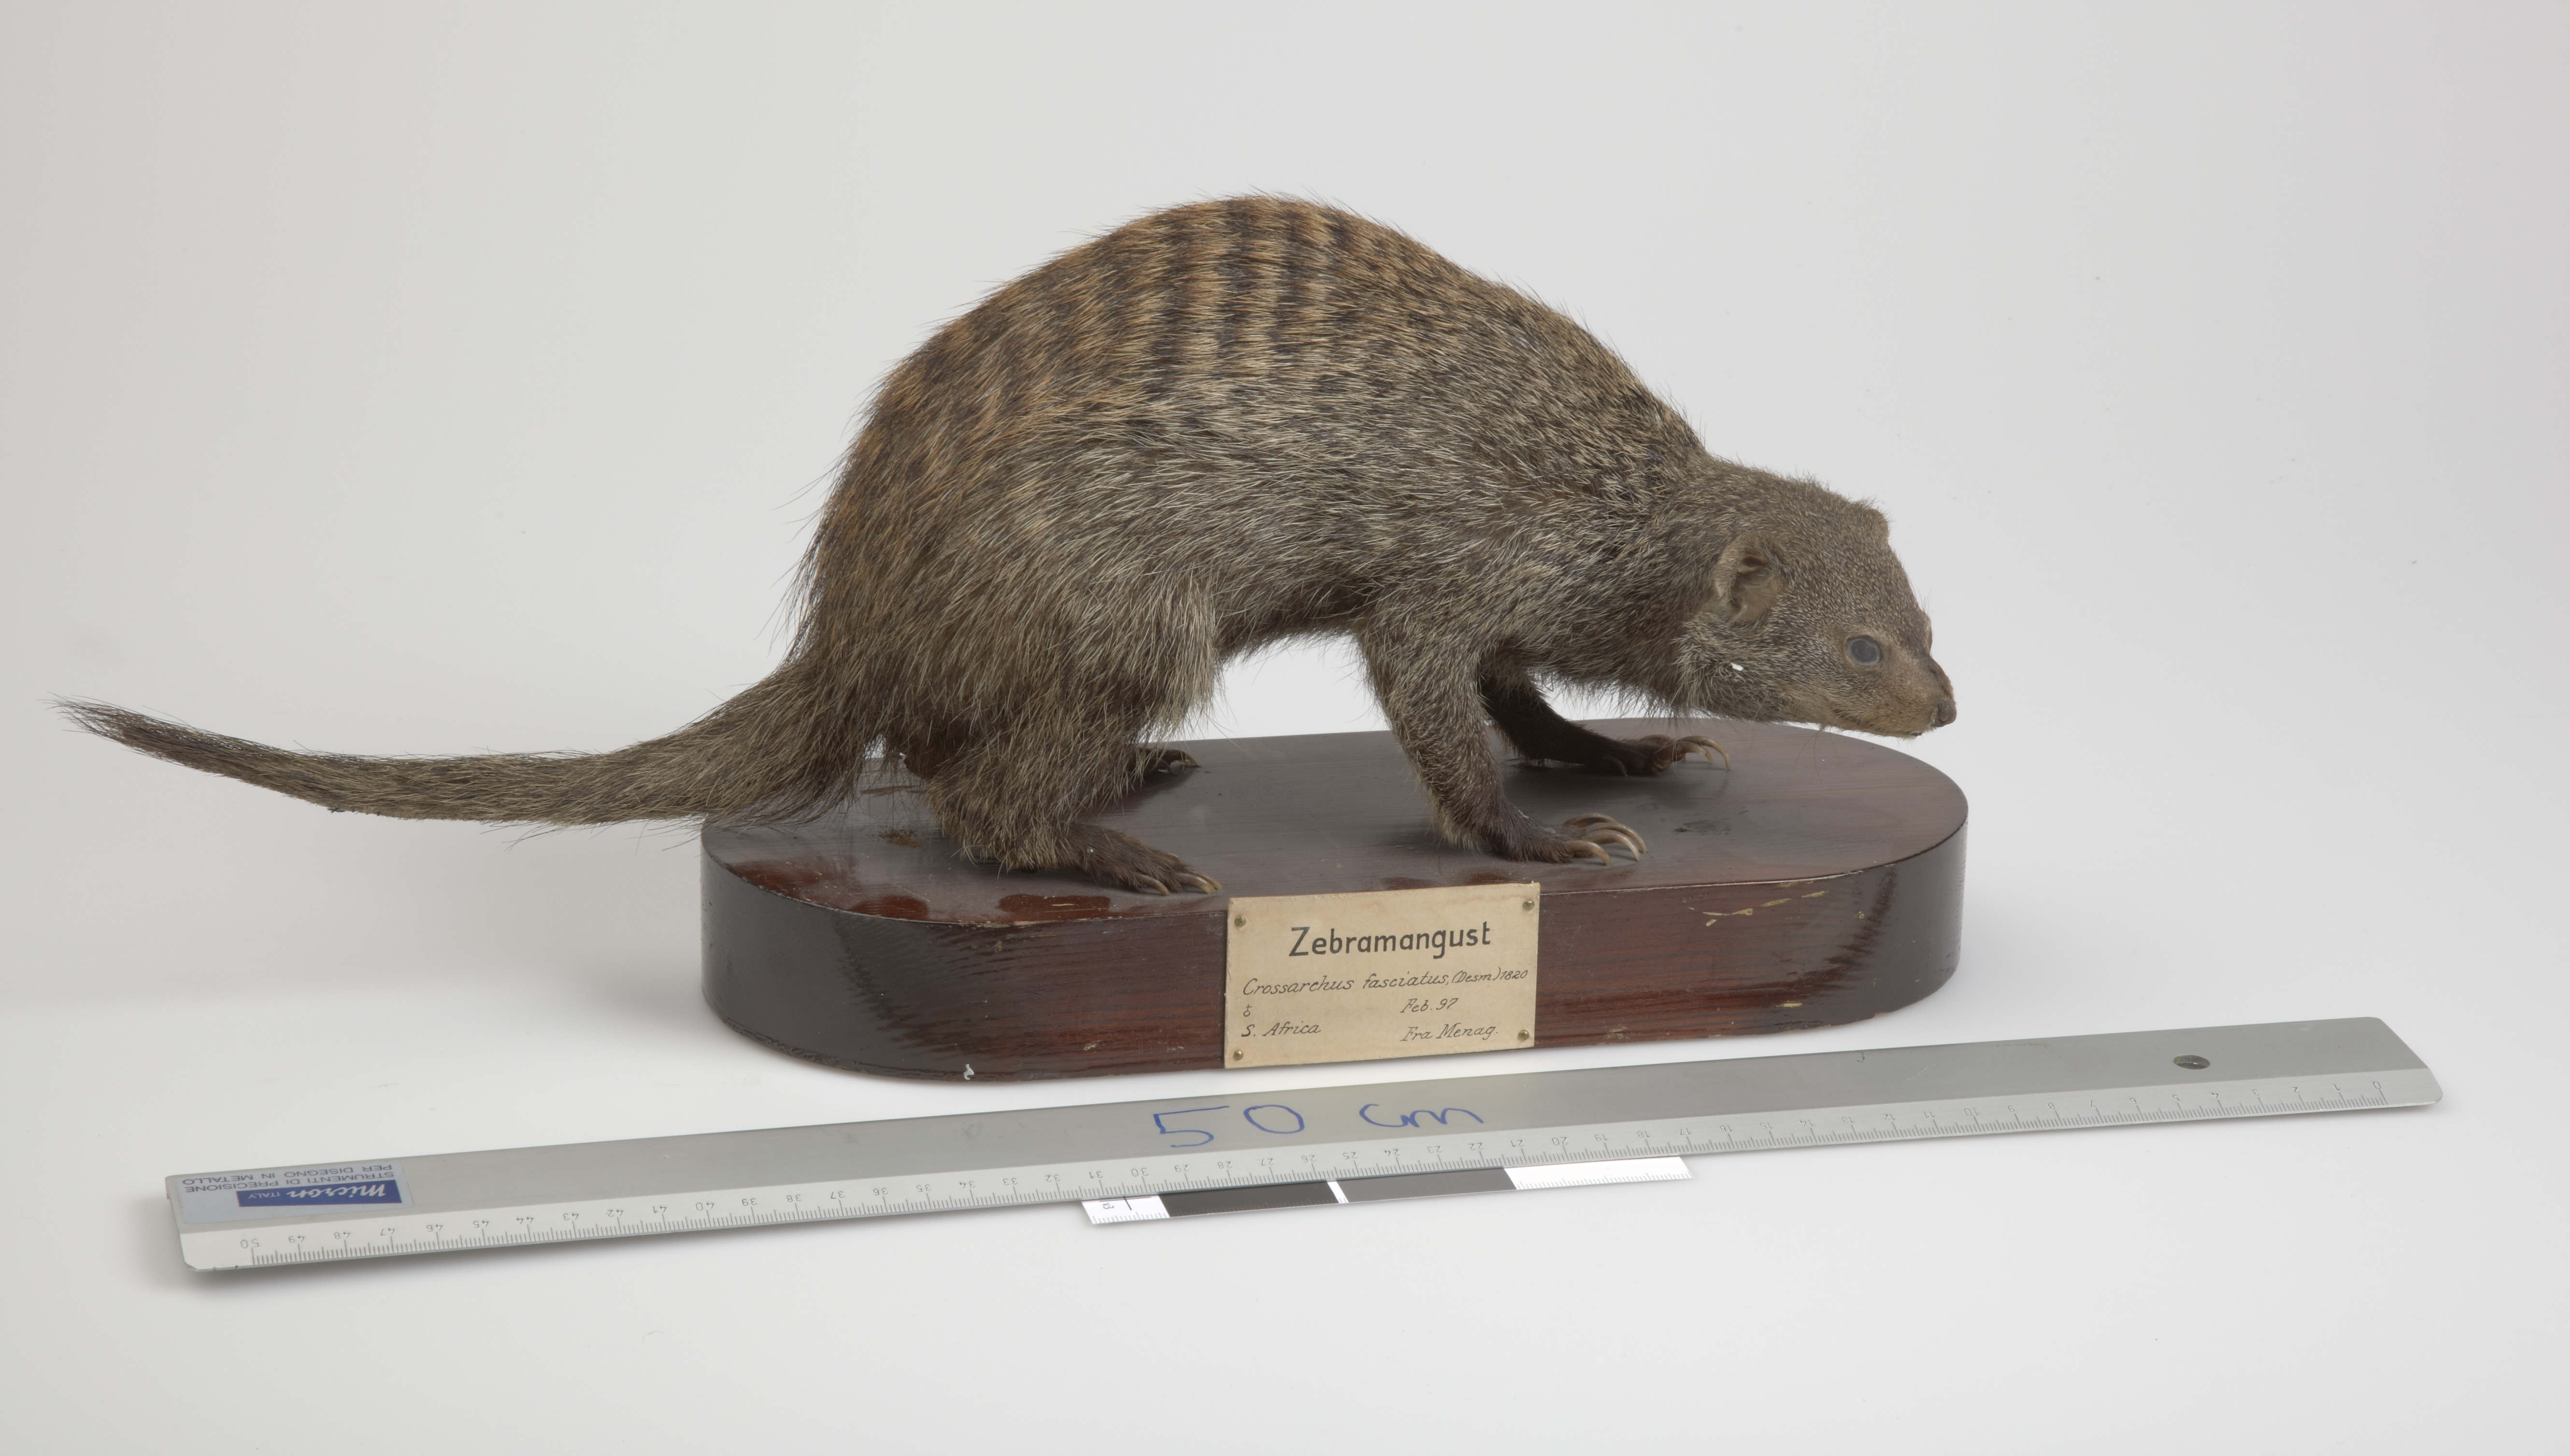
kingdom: Animalia
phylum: Chordata
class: Mammalia
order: Carnivora
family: Herpestidae
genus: Mungos
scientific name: Mungos mungo
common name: Banded mongoose
